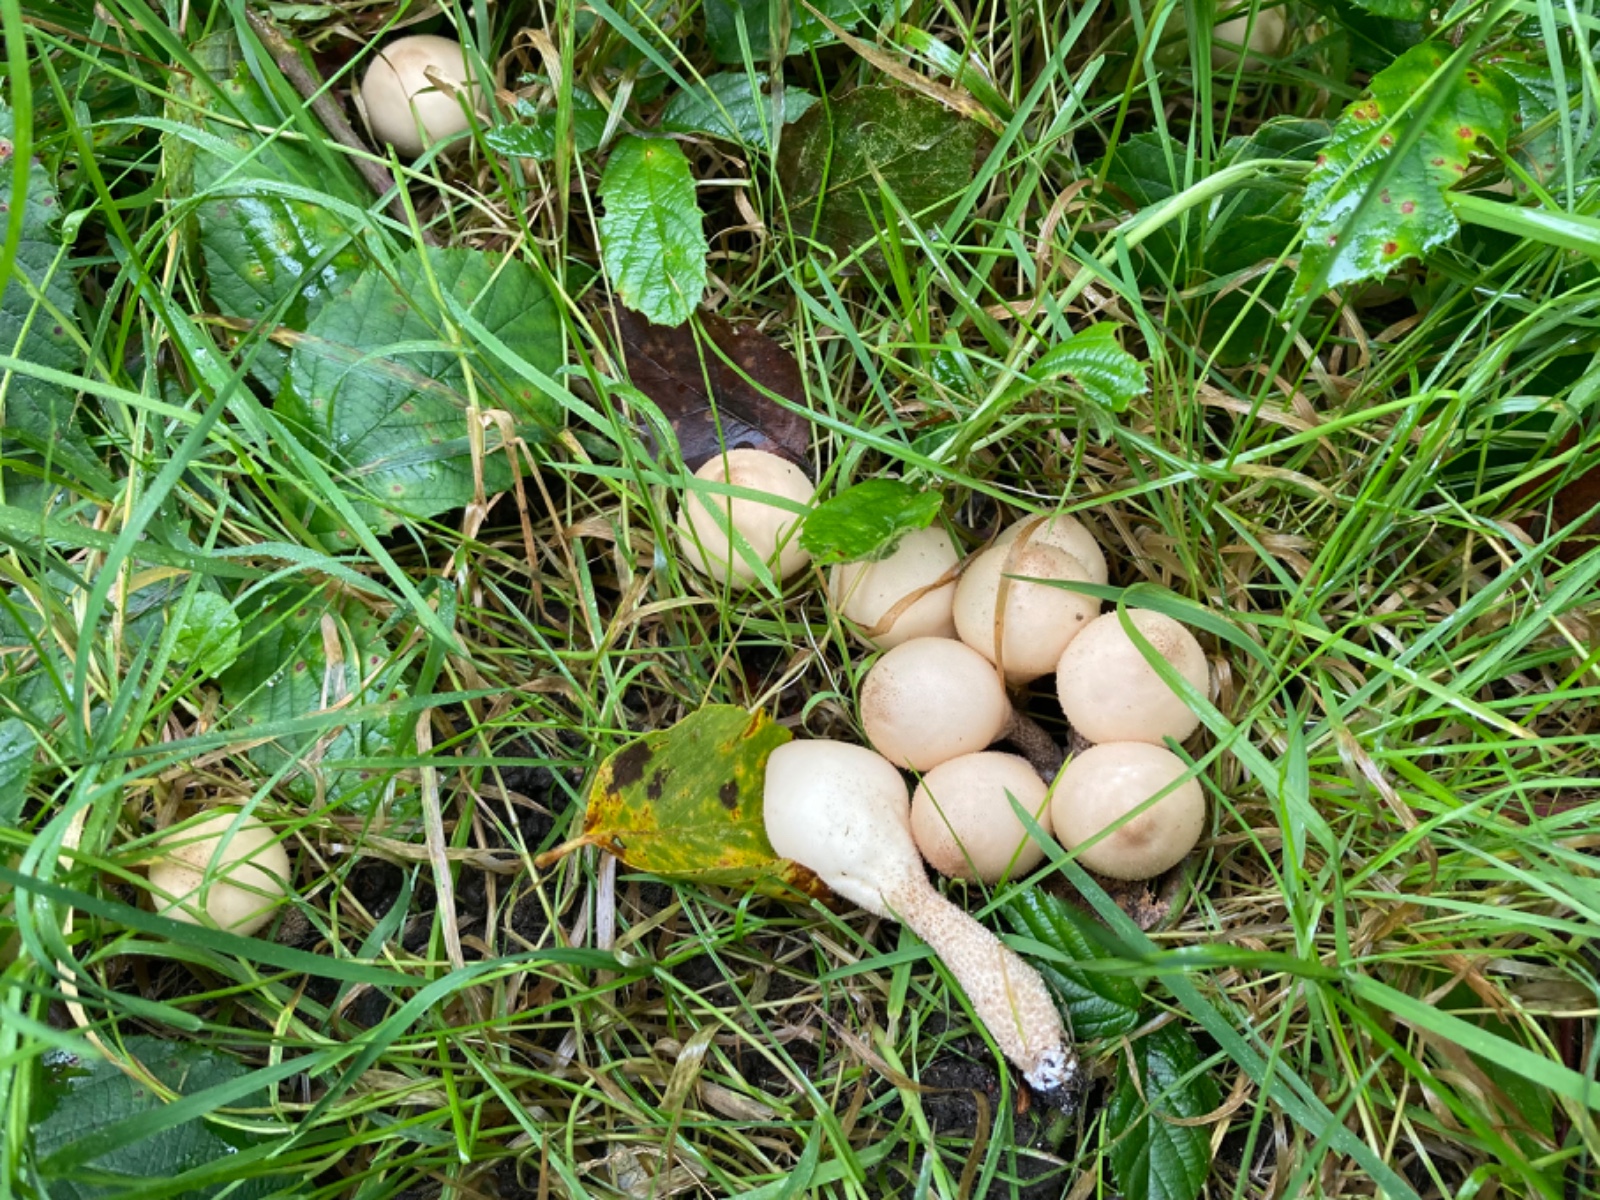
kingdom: Fungi
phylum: Basidiomycota
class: Agaricomycetes
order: Agaricales
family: Lycoperdaceae
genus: Apioperdon
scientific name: Apioperdon pyriforme
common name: pære-støvbold
